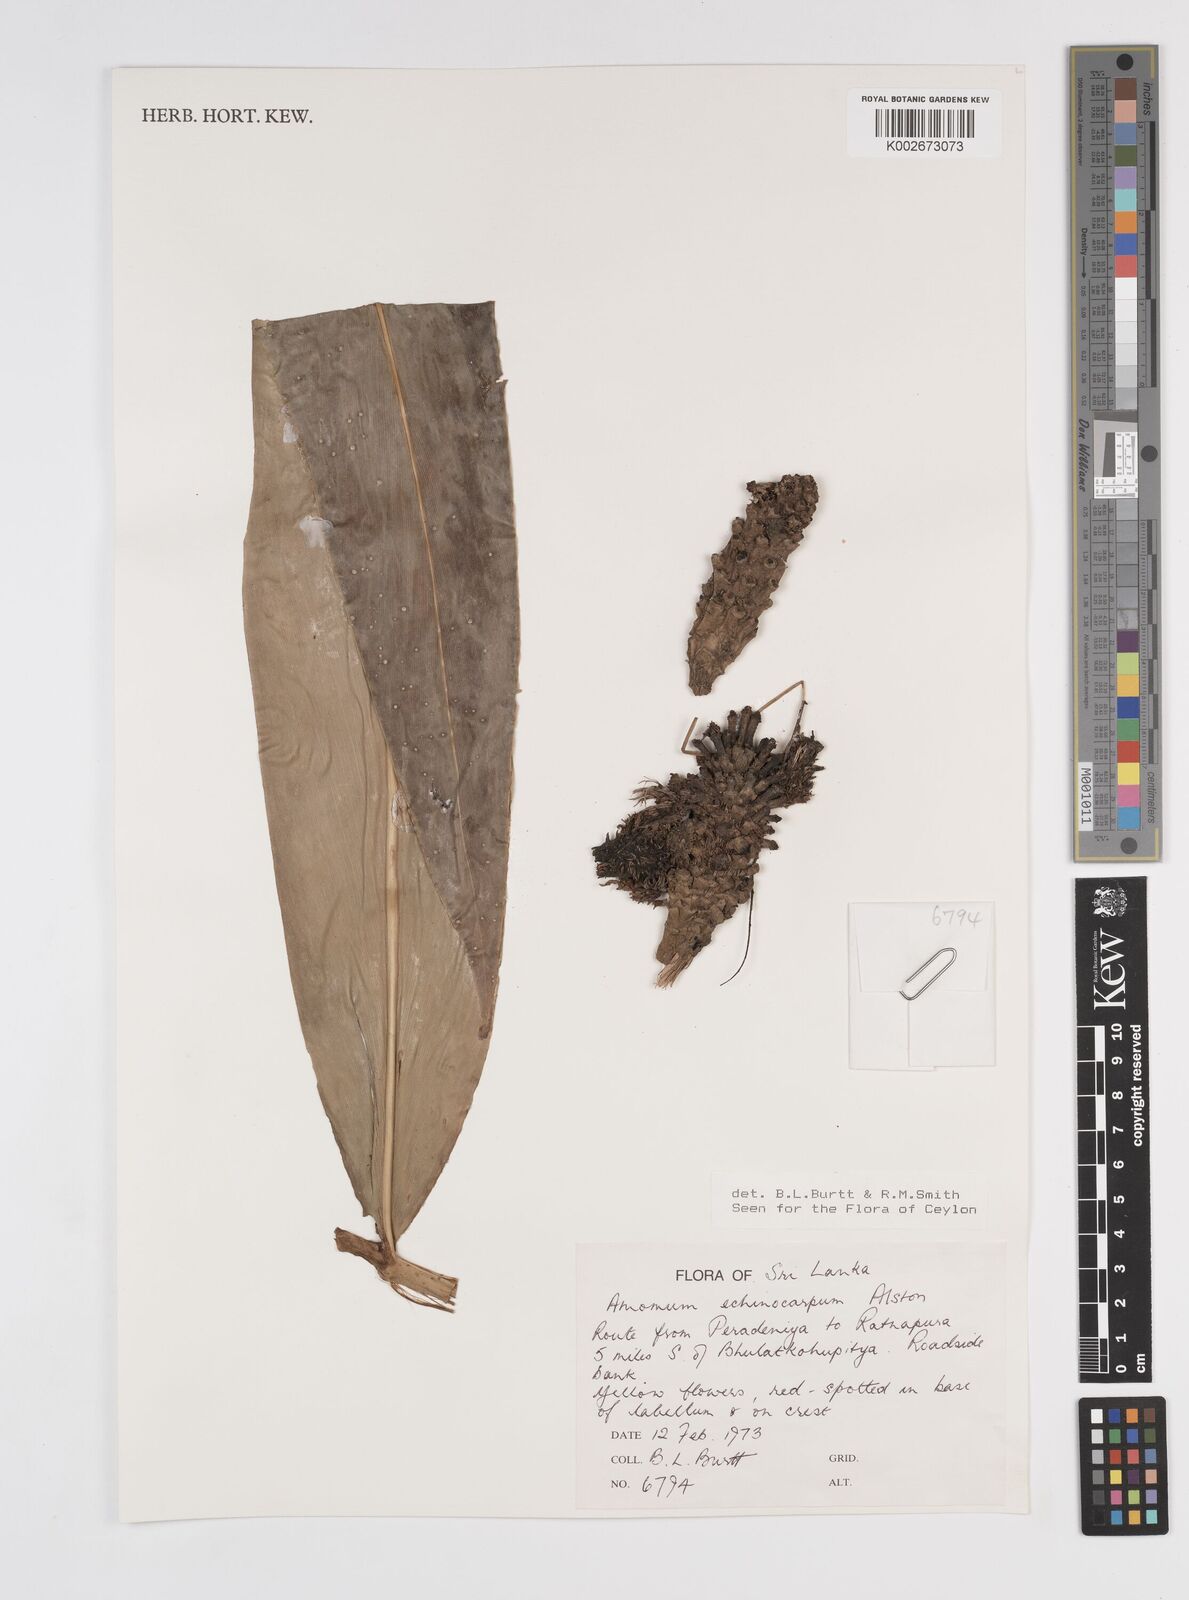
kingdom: Plantae
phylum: Tracheophyta
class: Liliopsida
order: Zingiberales
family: Zingiberaceae
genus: Meistera
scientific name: Meistera echinocarpa
